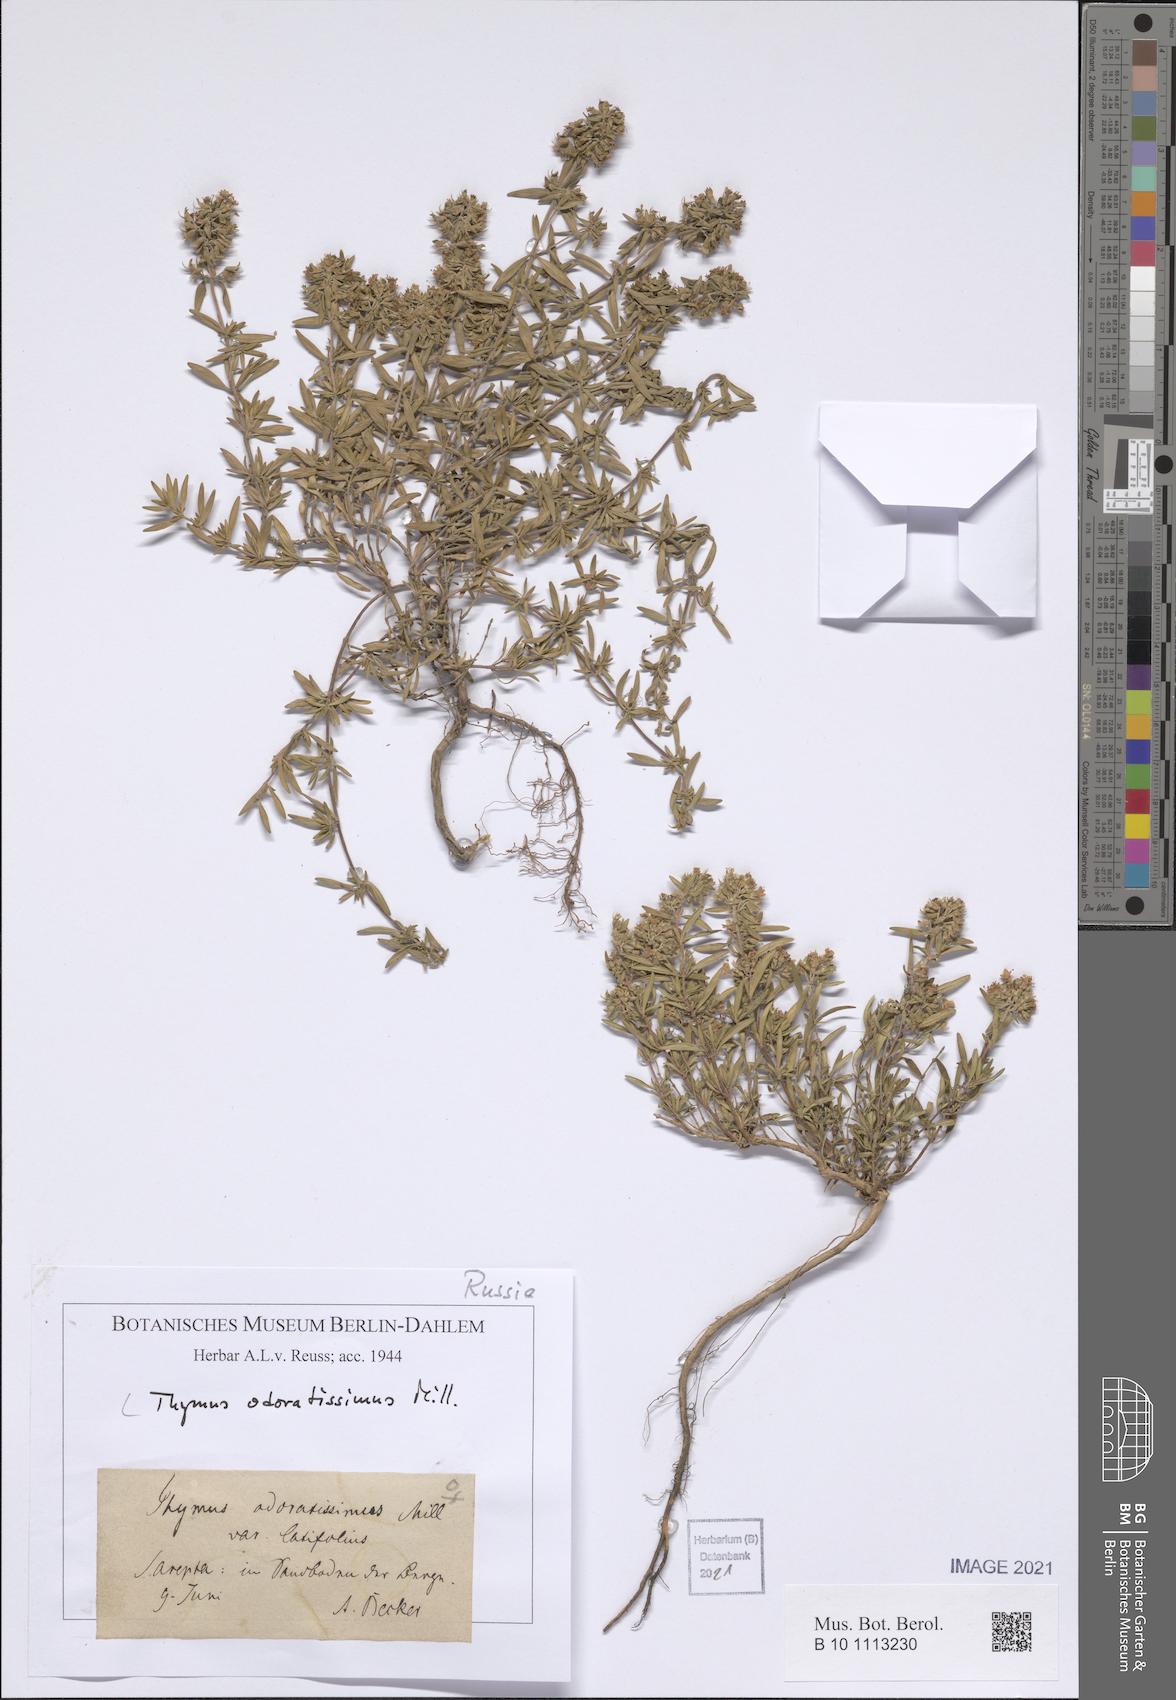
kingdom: Plantae
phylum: Tracheophyta
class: Magnoliopsida
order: Lamiales
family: Lamiaceae
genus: Thymus
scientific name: Thymus odoratissimus
